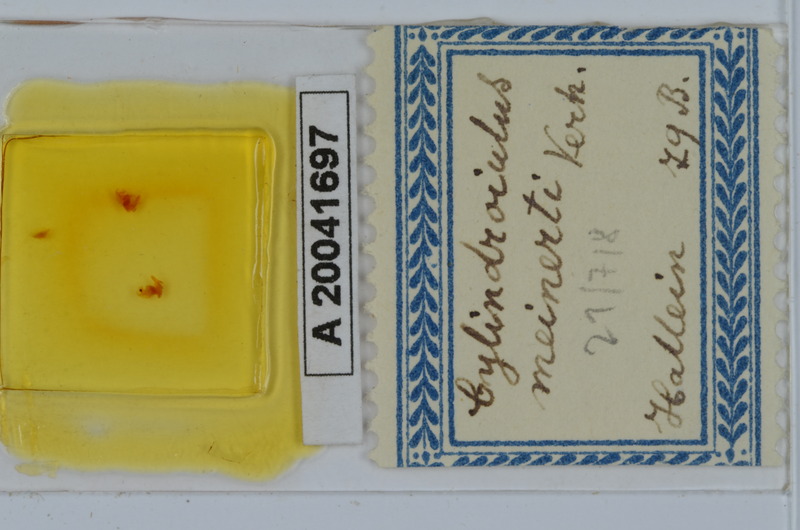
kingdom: Animalia
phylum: Arthropoda
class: Diplopoda
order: Julida
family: Julidae
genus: Cylindroiulus
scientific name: Cylindroiulus meinerti
